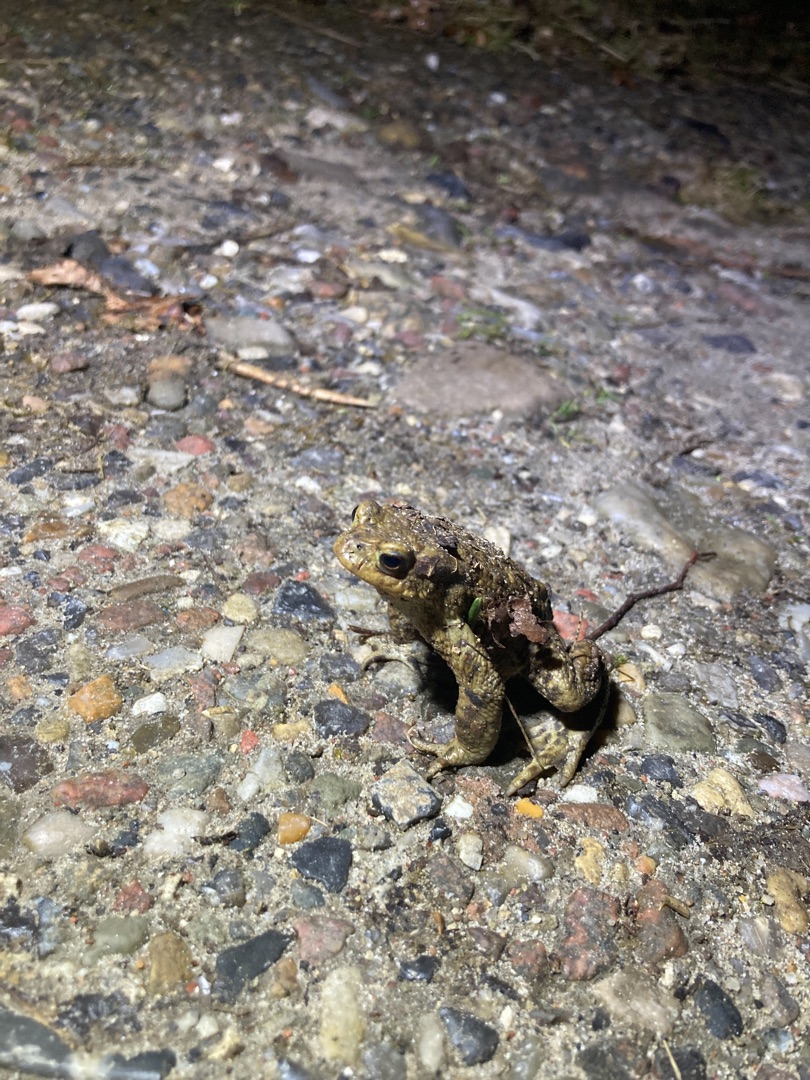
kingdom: Animalia
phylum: Chordata
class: Amphibia
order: Anura
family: Bufonidae
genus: Bufo
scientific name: Bufo bufo
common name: Skrubtudse
